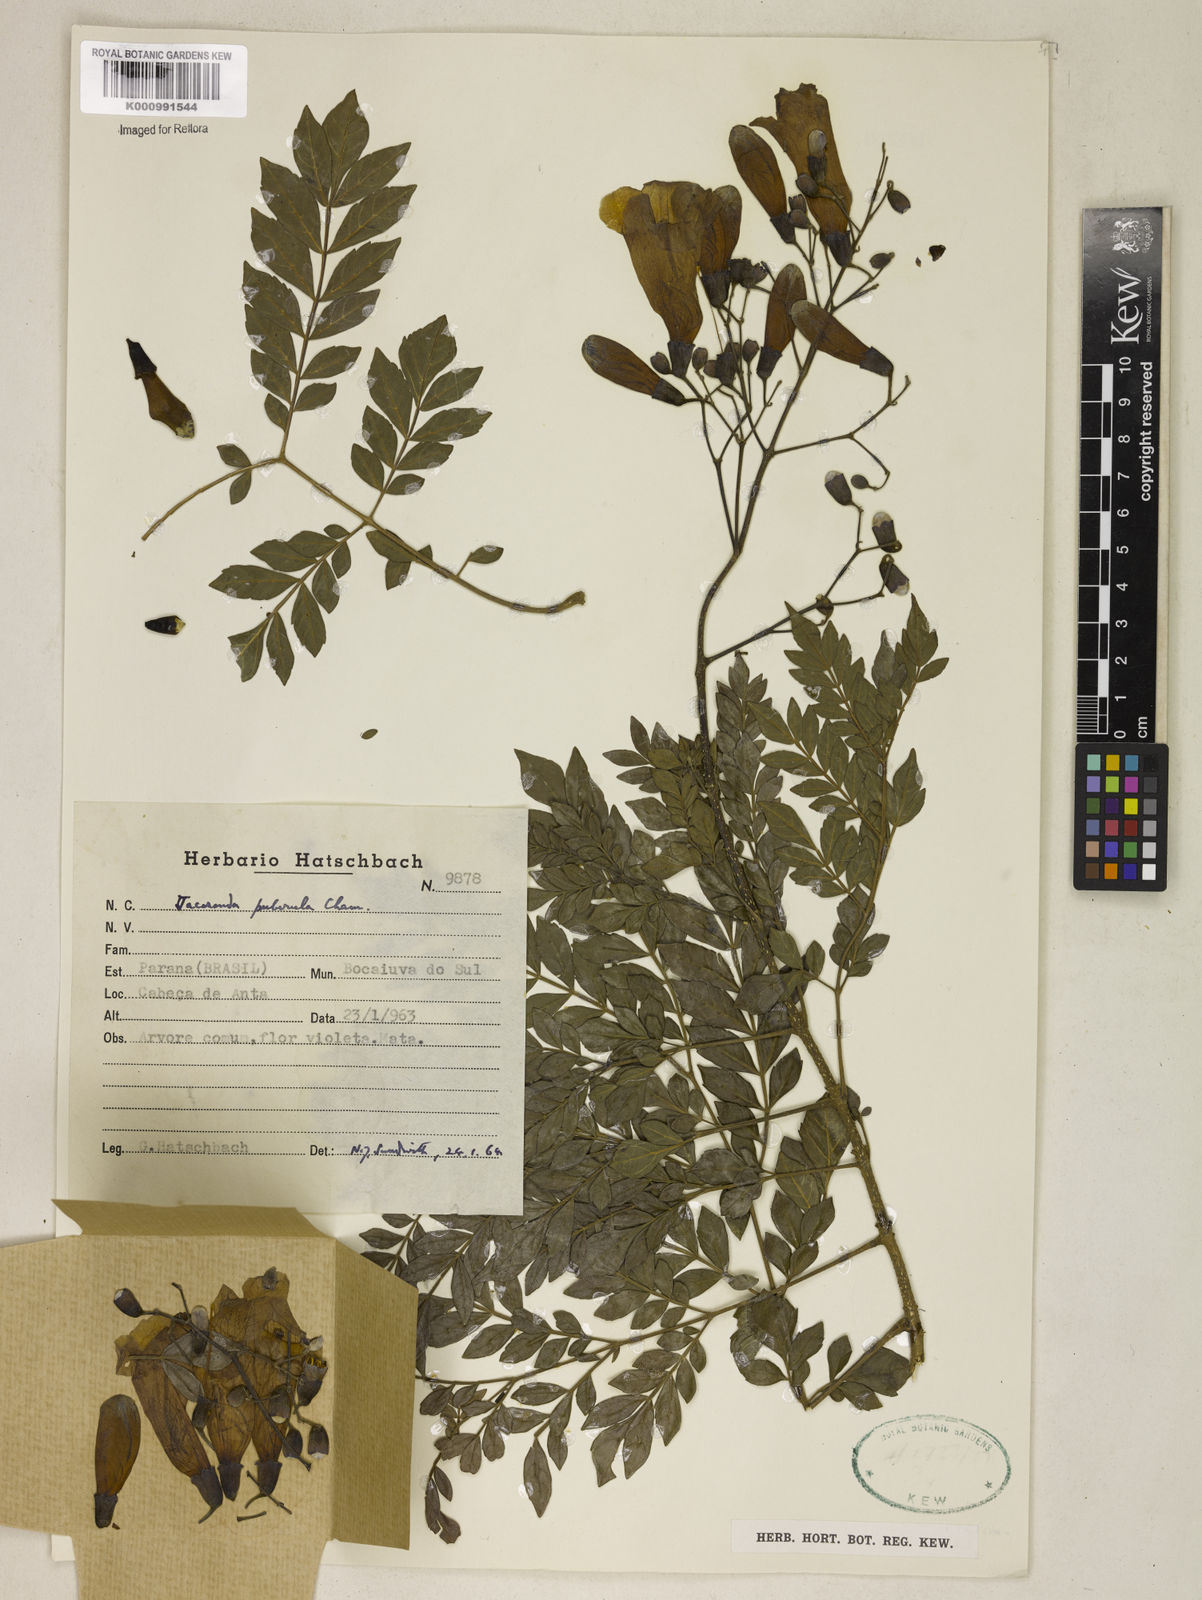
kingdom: Plantae
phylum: Tracheophyta
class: Magnoliopsida
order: Lamiales
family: Bignoniaceae
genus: Jacaranda
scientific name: Jacaranda puberula
